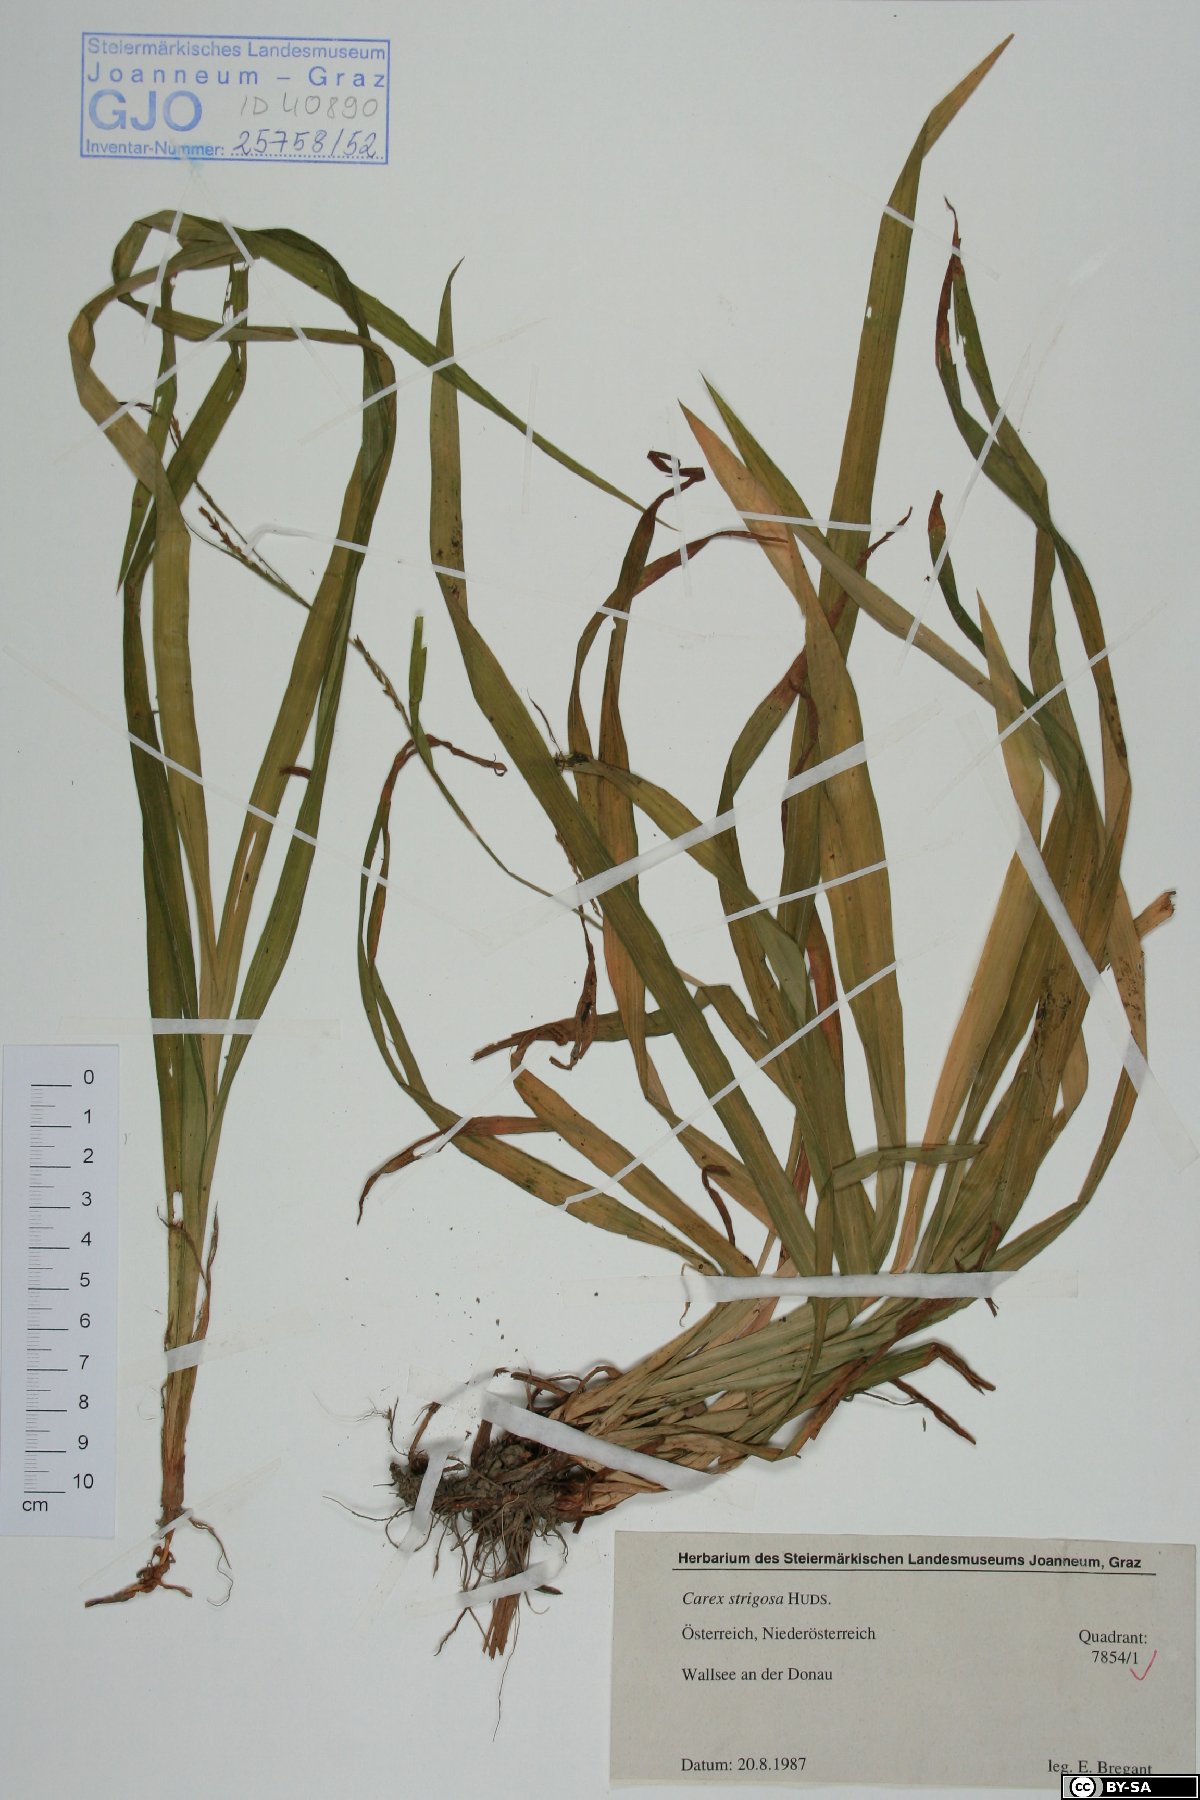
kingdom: Plantae
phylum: Tracheophyta
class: Liliopsida
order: Poales
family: Cyperaceae
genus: Carex
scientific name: Carex strigosa
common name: Thin-spiked wood-sedge
